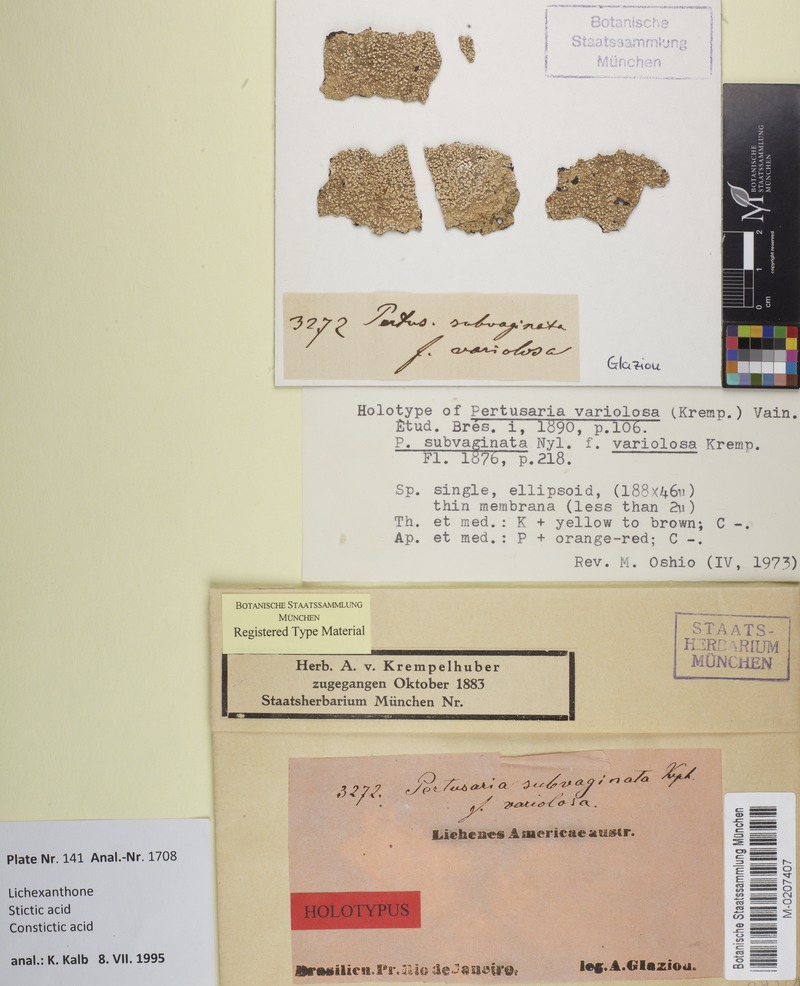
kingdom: Fungi
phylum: Ascomycota
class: Lecanoromycetes
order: Pertusariales
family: Pertusariaceae
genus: Lepra
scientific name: Lepra variolosa
